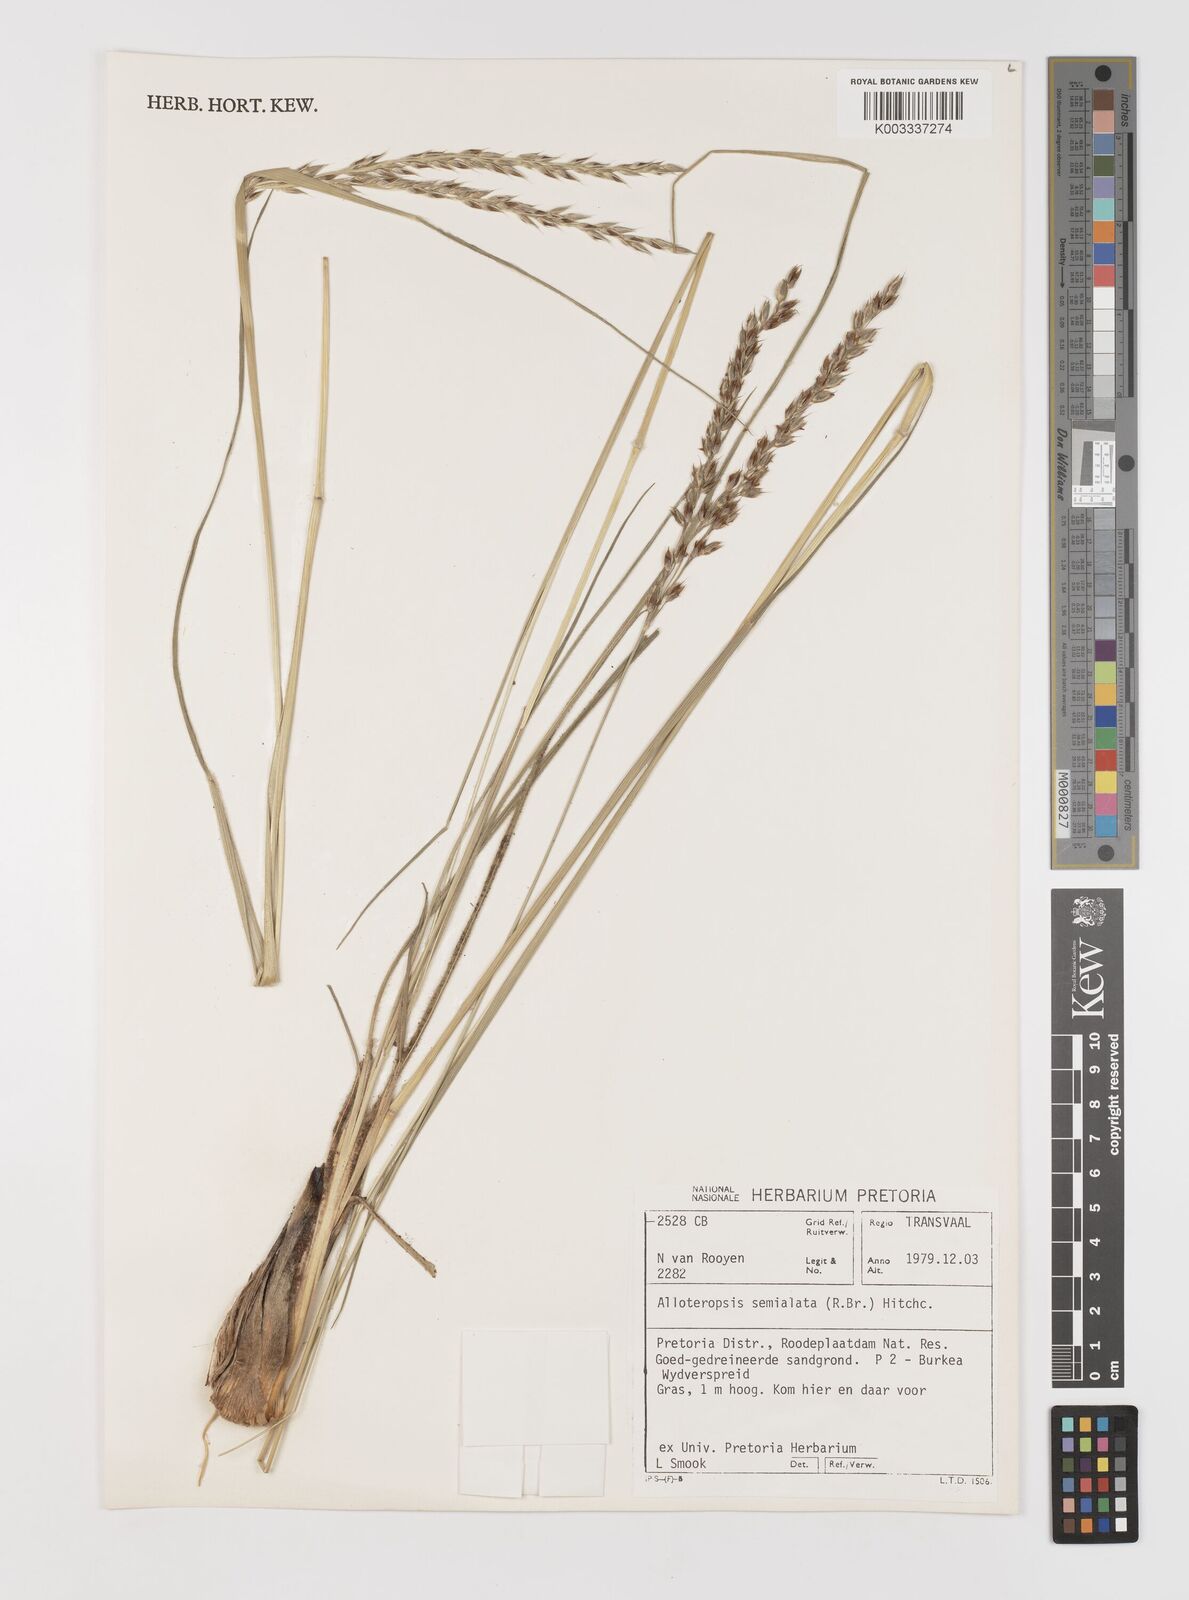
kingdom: Plantae
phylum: Tracheophyta
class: Liliopsida
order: Poales
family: Poaceae
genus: Alloteropsis
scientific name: Alloteropsis semialata
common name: Cockatoo grass
